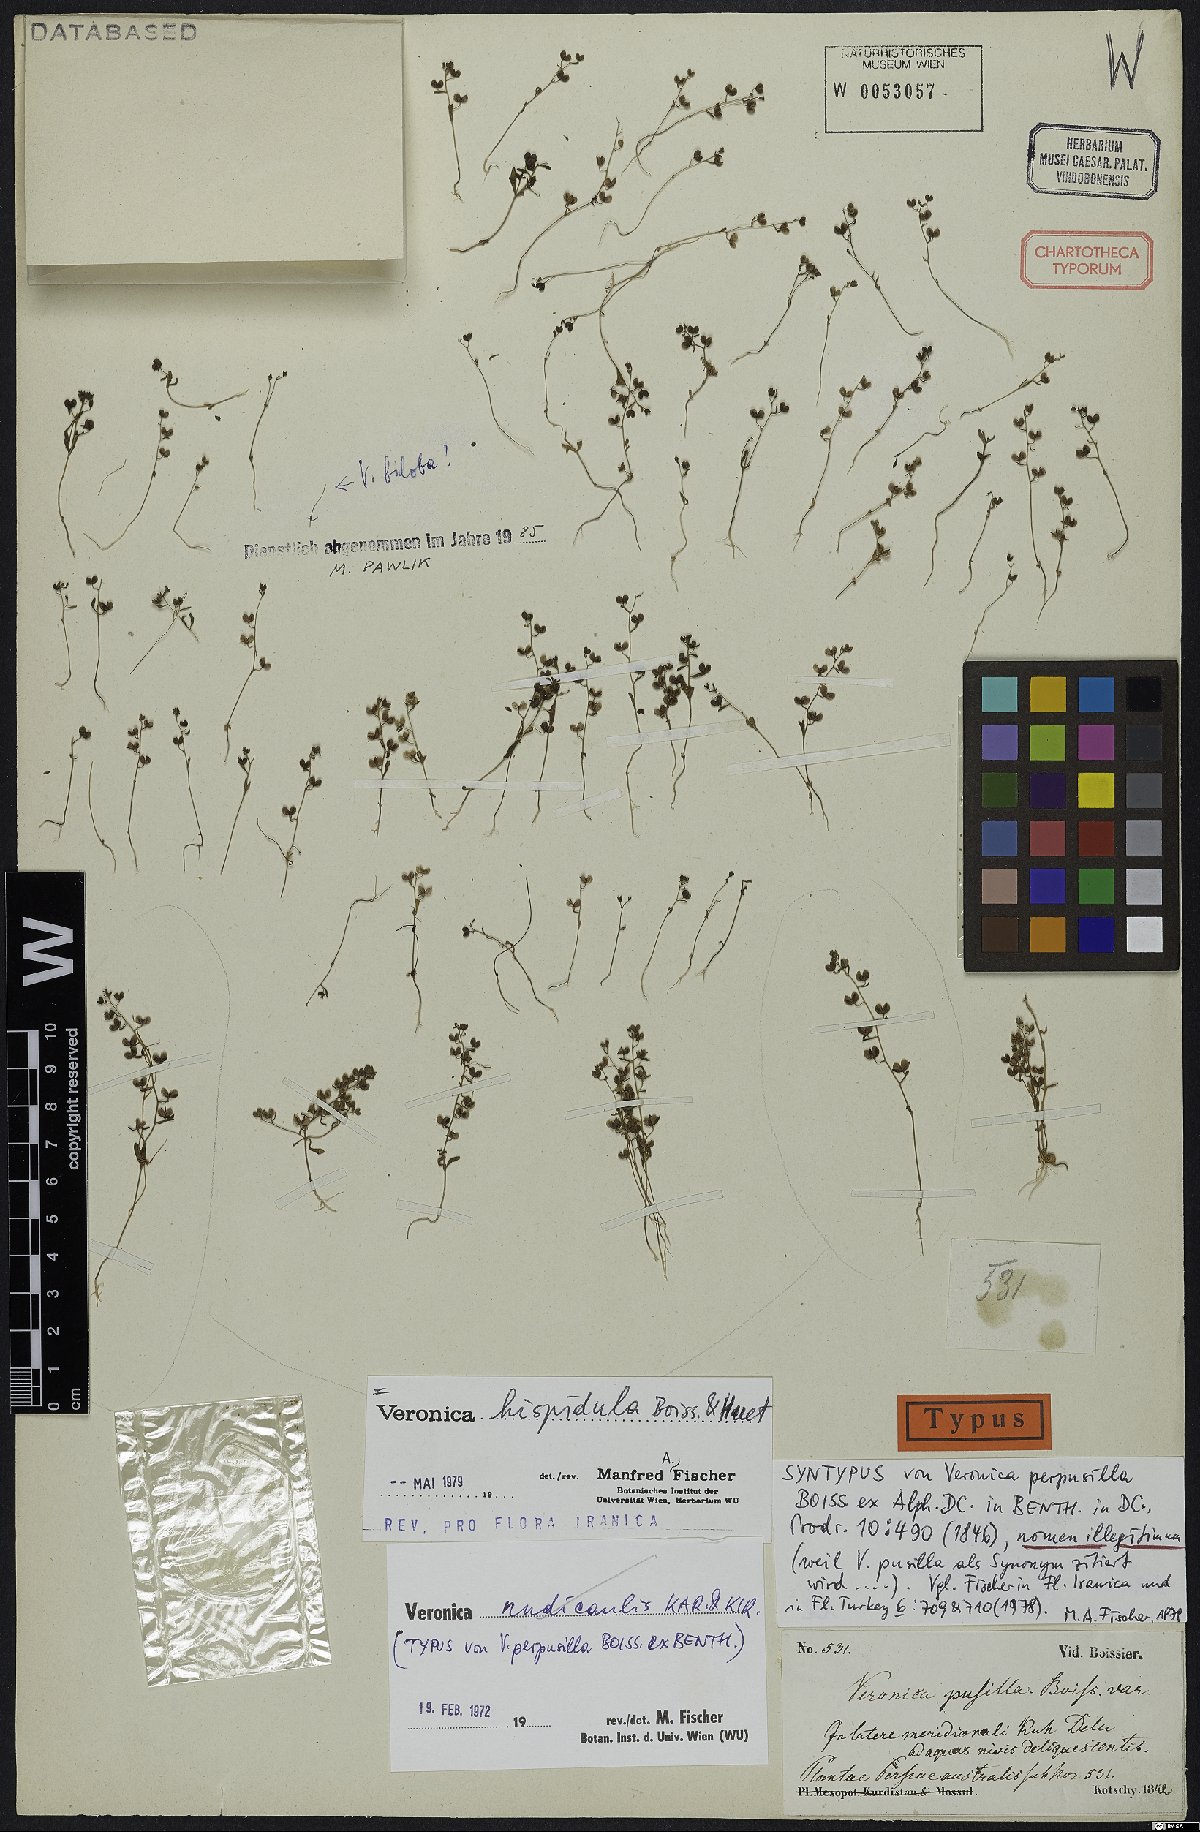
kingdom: Plantae
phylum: Tracheophyta
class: Magnoliopsida
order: Lamiales
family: Plantaginaceae
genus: Veronica
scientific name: Veronica hispidula
